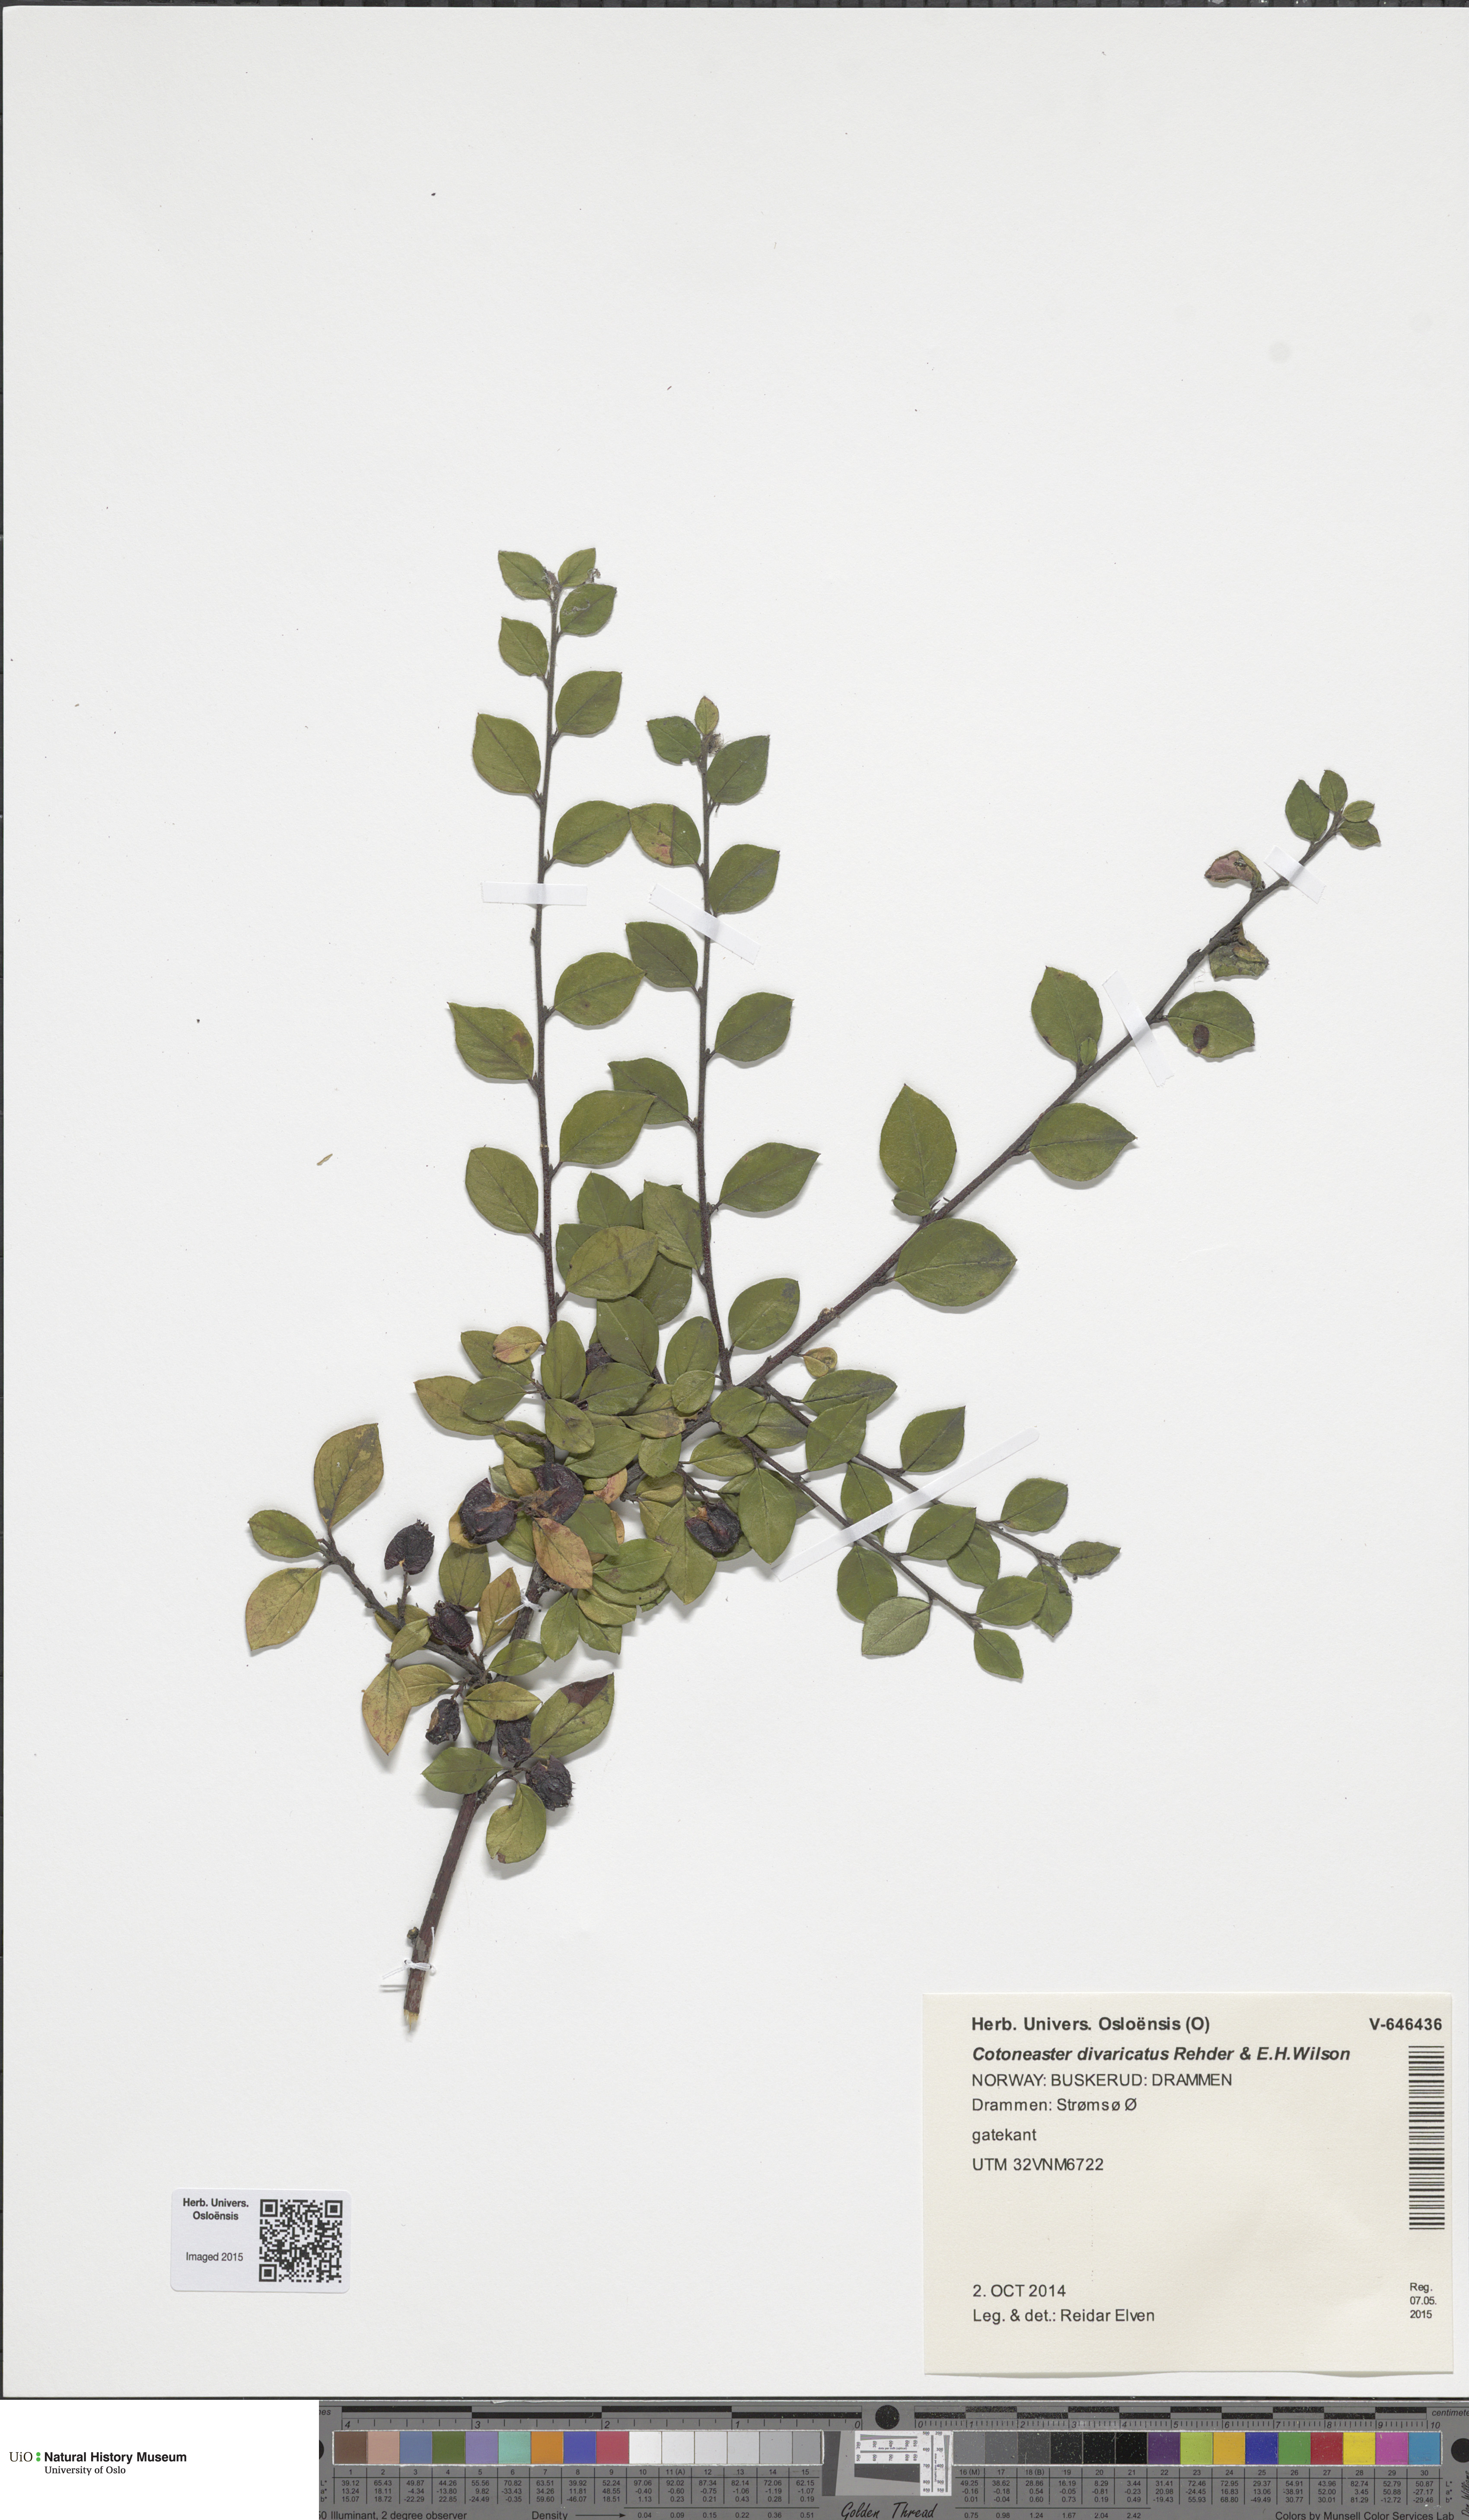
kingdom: Plantae
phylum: Tracheophyta
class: Magnoliopsida
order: Rosales
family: Rosaceae
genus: Cotoneaster
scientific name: Cotoneaster divaricatus
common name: Spreading cotoneaster
